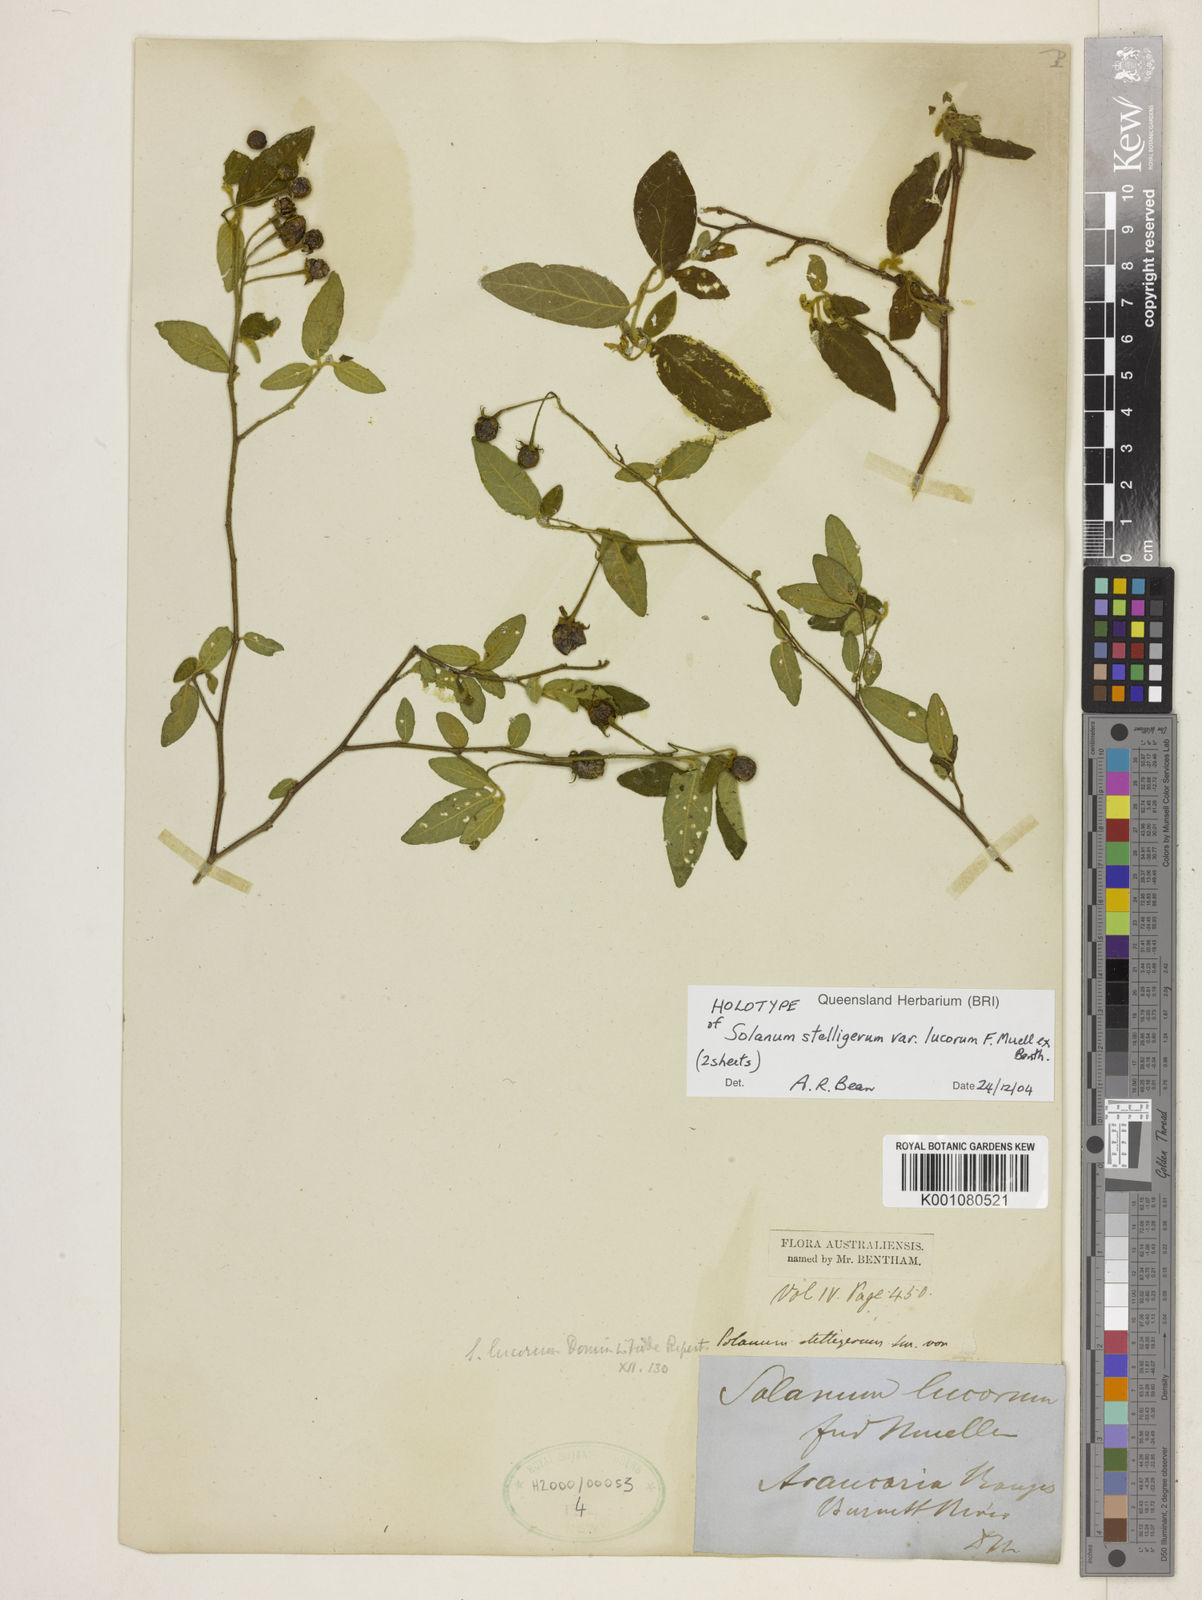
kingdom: Plantae
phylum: Tracheophyta
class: Magnoliopsida
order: Solanales
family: Solanaceae
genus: Solanum
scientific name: Solanum stelligerum
